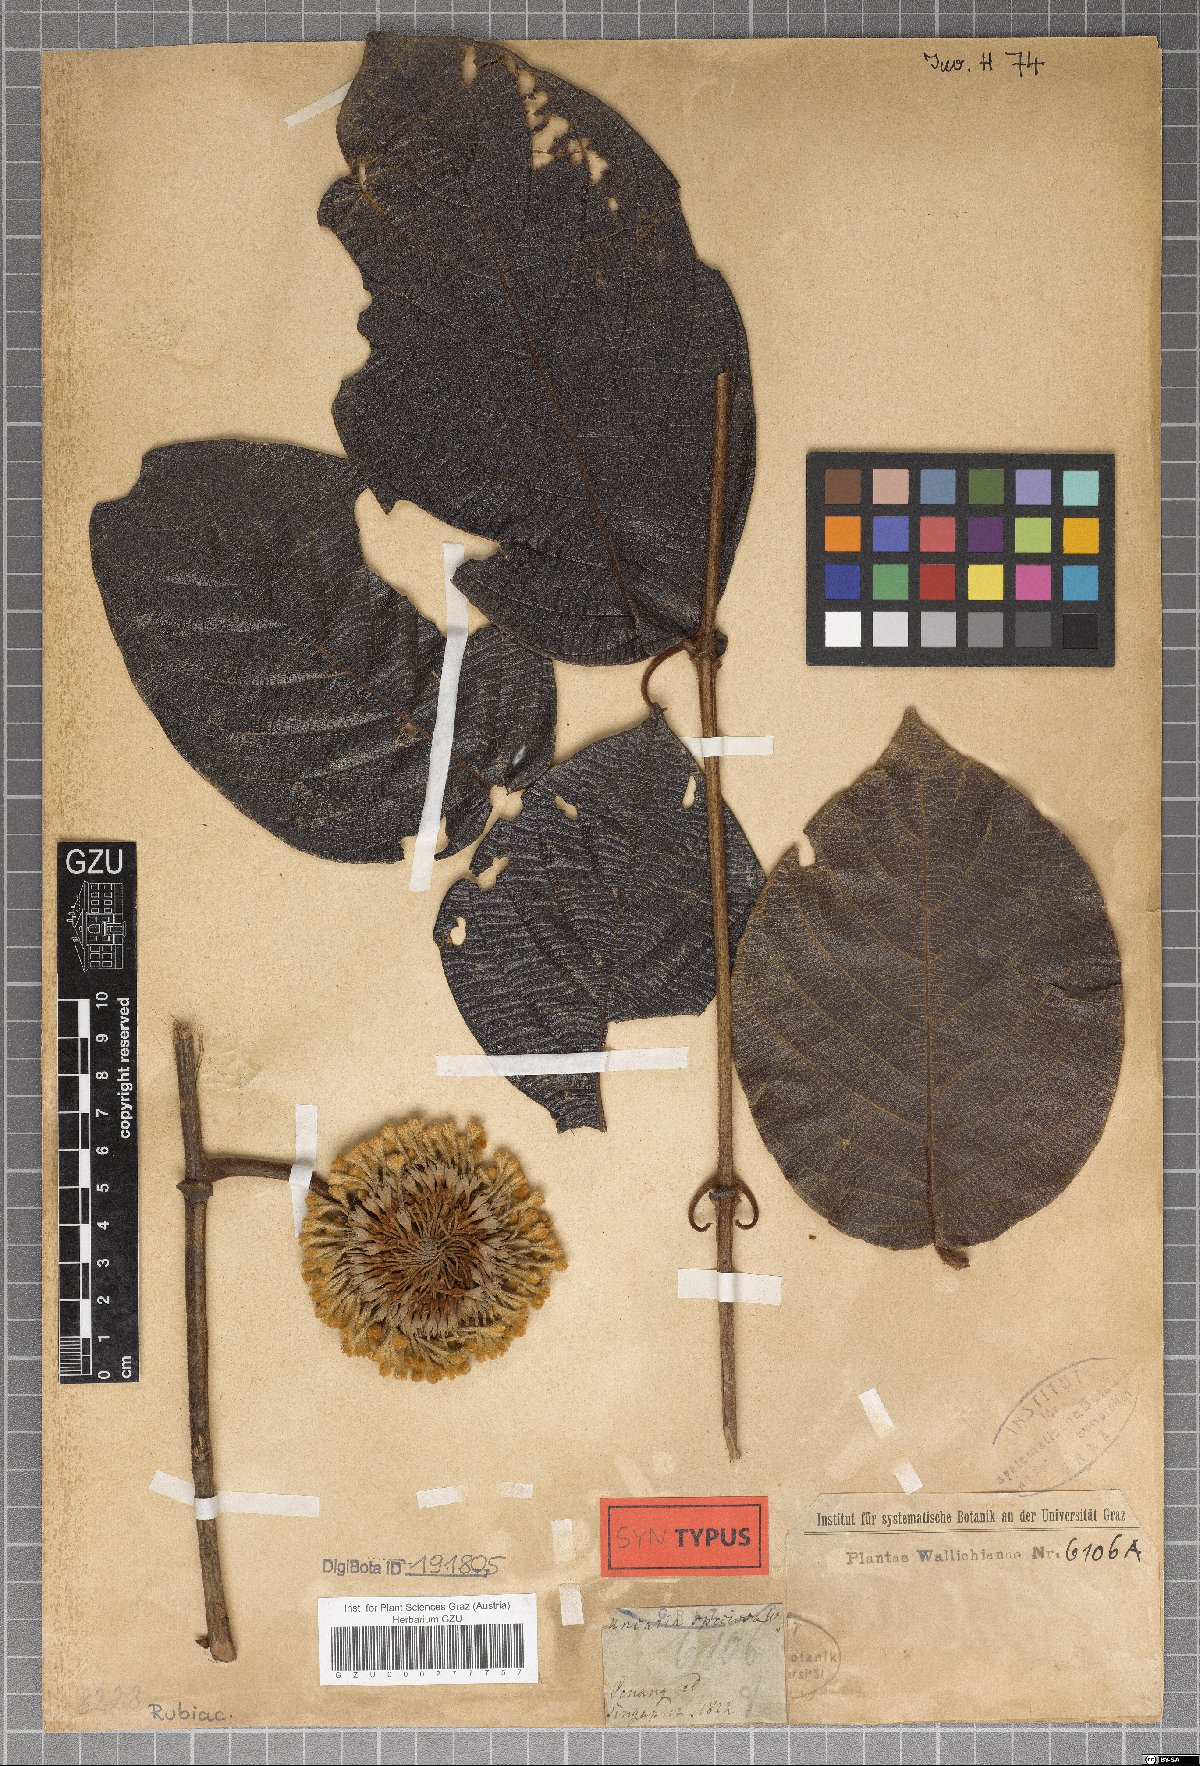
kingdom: Plantae
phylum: Tracheophyta
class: Magnoliopsida
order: Gentianales
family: Rubiaceae
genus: Uncaria
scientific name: Uncaria cordata
